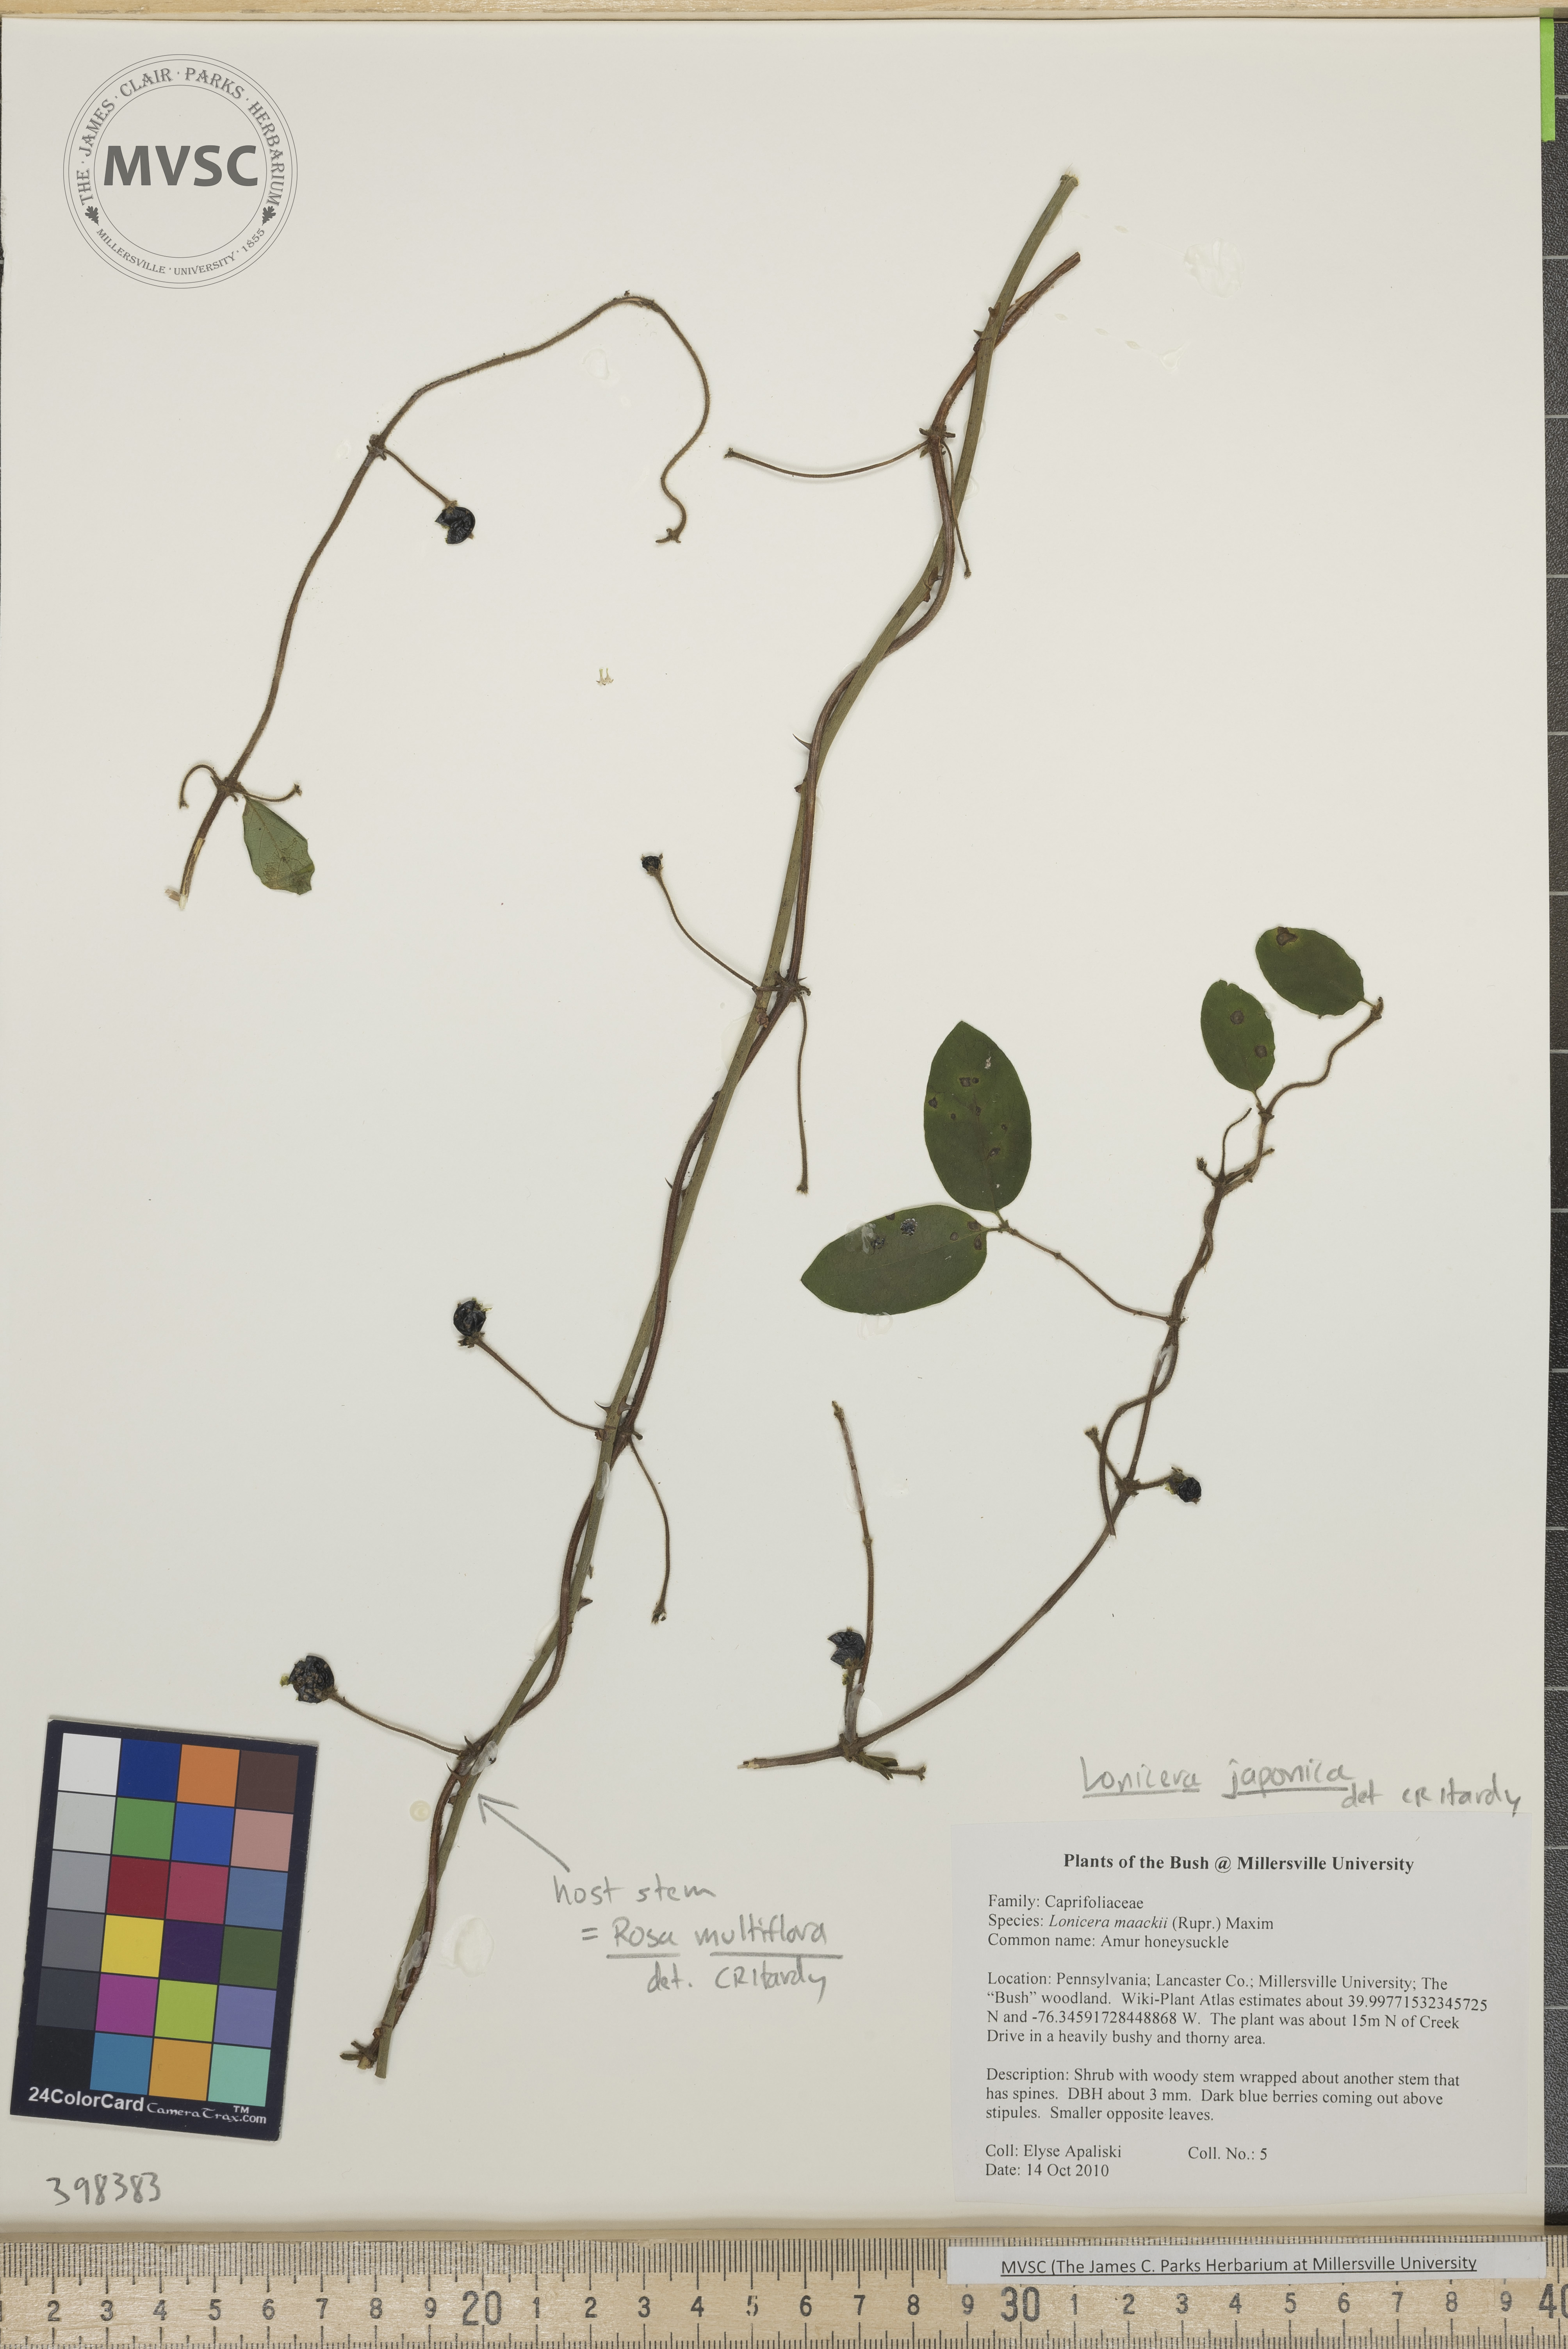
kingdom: Plantae
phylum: Tracheophyta
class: Magnoliopsida
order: Dipsacales
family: Caprifoliaceae
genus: Lonicera
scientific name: Lonicera japonica
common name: Japanese honeysuckle
